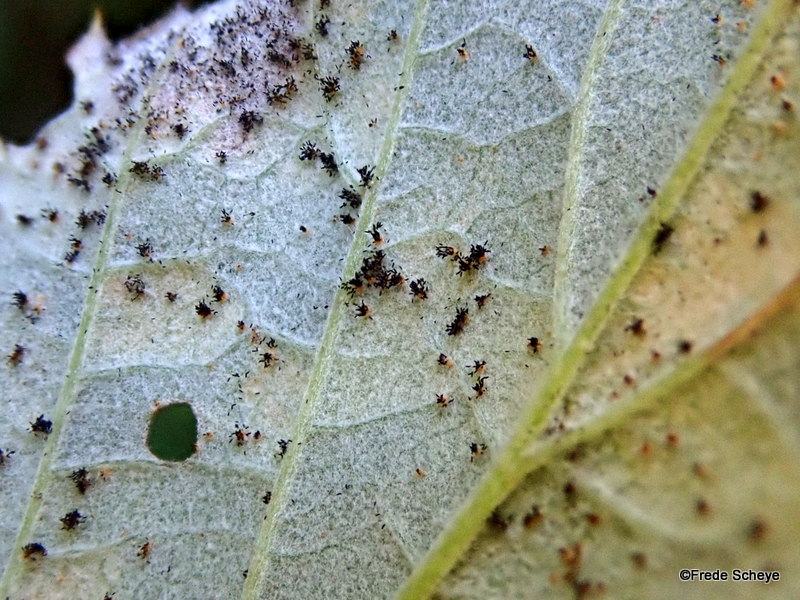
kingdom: Fungi
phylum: Basidiomycota
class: Pucciniomycetes
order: Pucciniales
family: Phragmidiaceae
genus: Phragmidium
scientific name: Phragmidium bulbosum
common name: brombær-flercellerust
